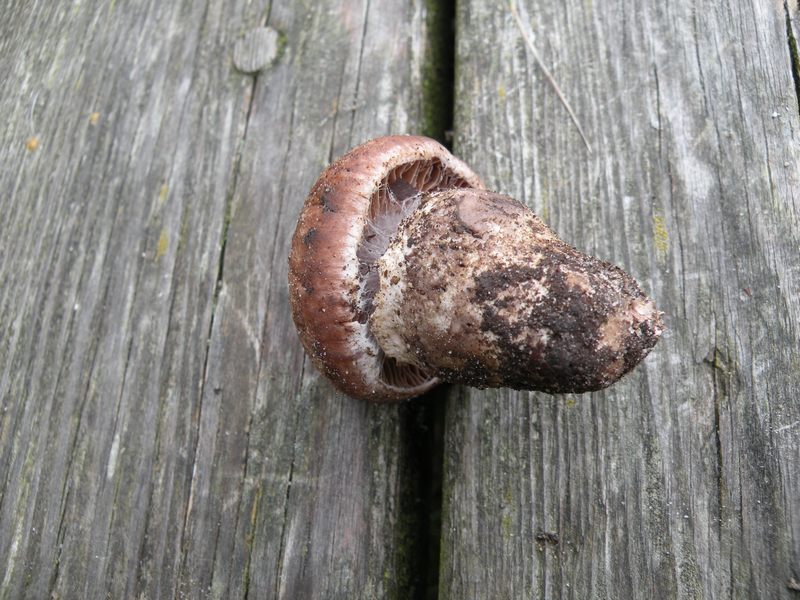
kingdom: Fungi
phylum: Basidiomycota
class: Agaricomycetes
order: Agaricales
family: Cortinariaceae
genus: Cortinarius
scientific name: Cortinarius torvus
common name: champignonagtig slørhat
